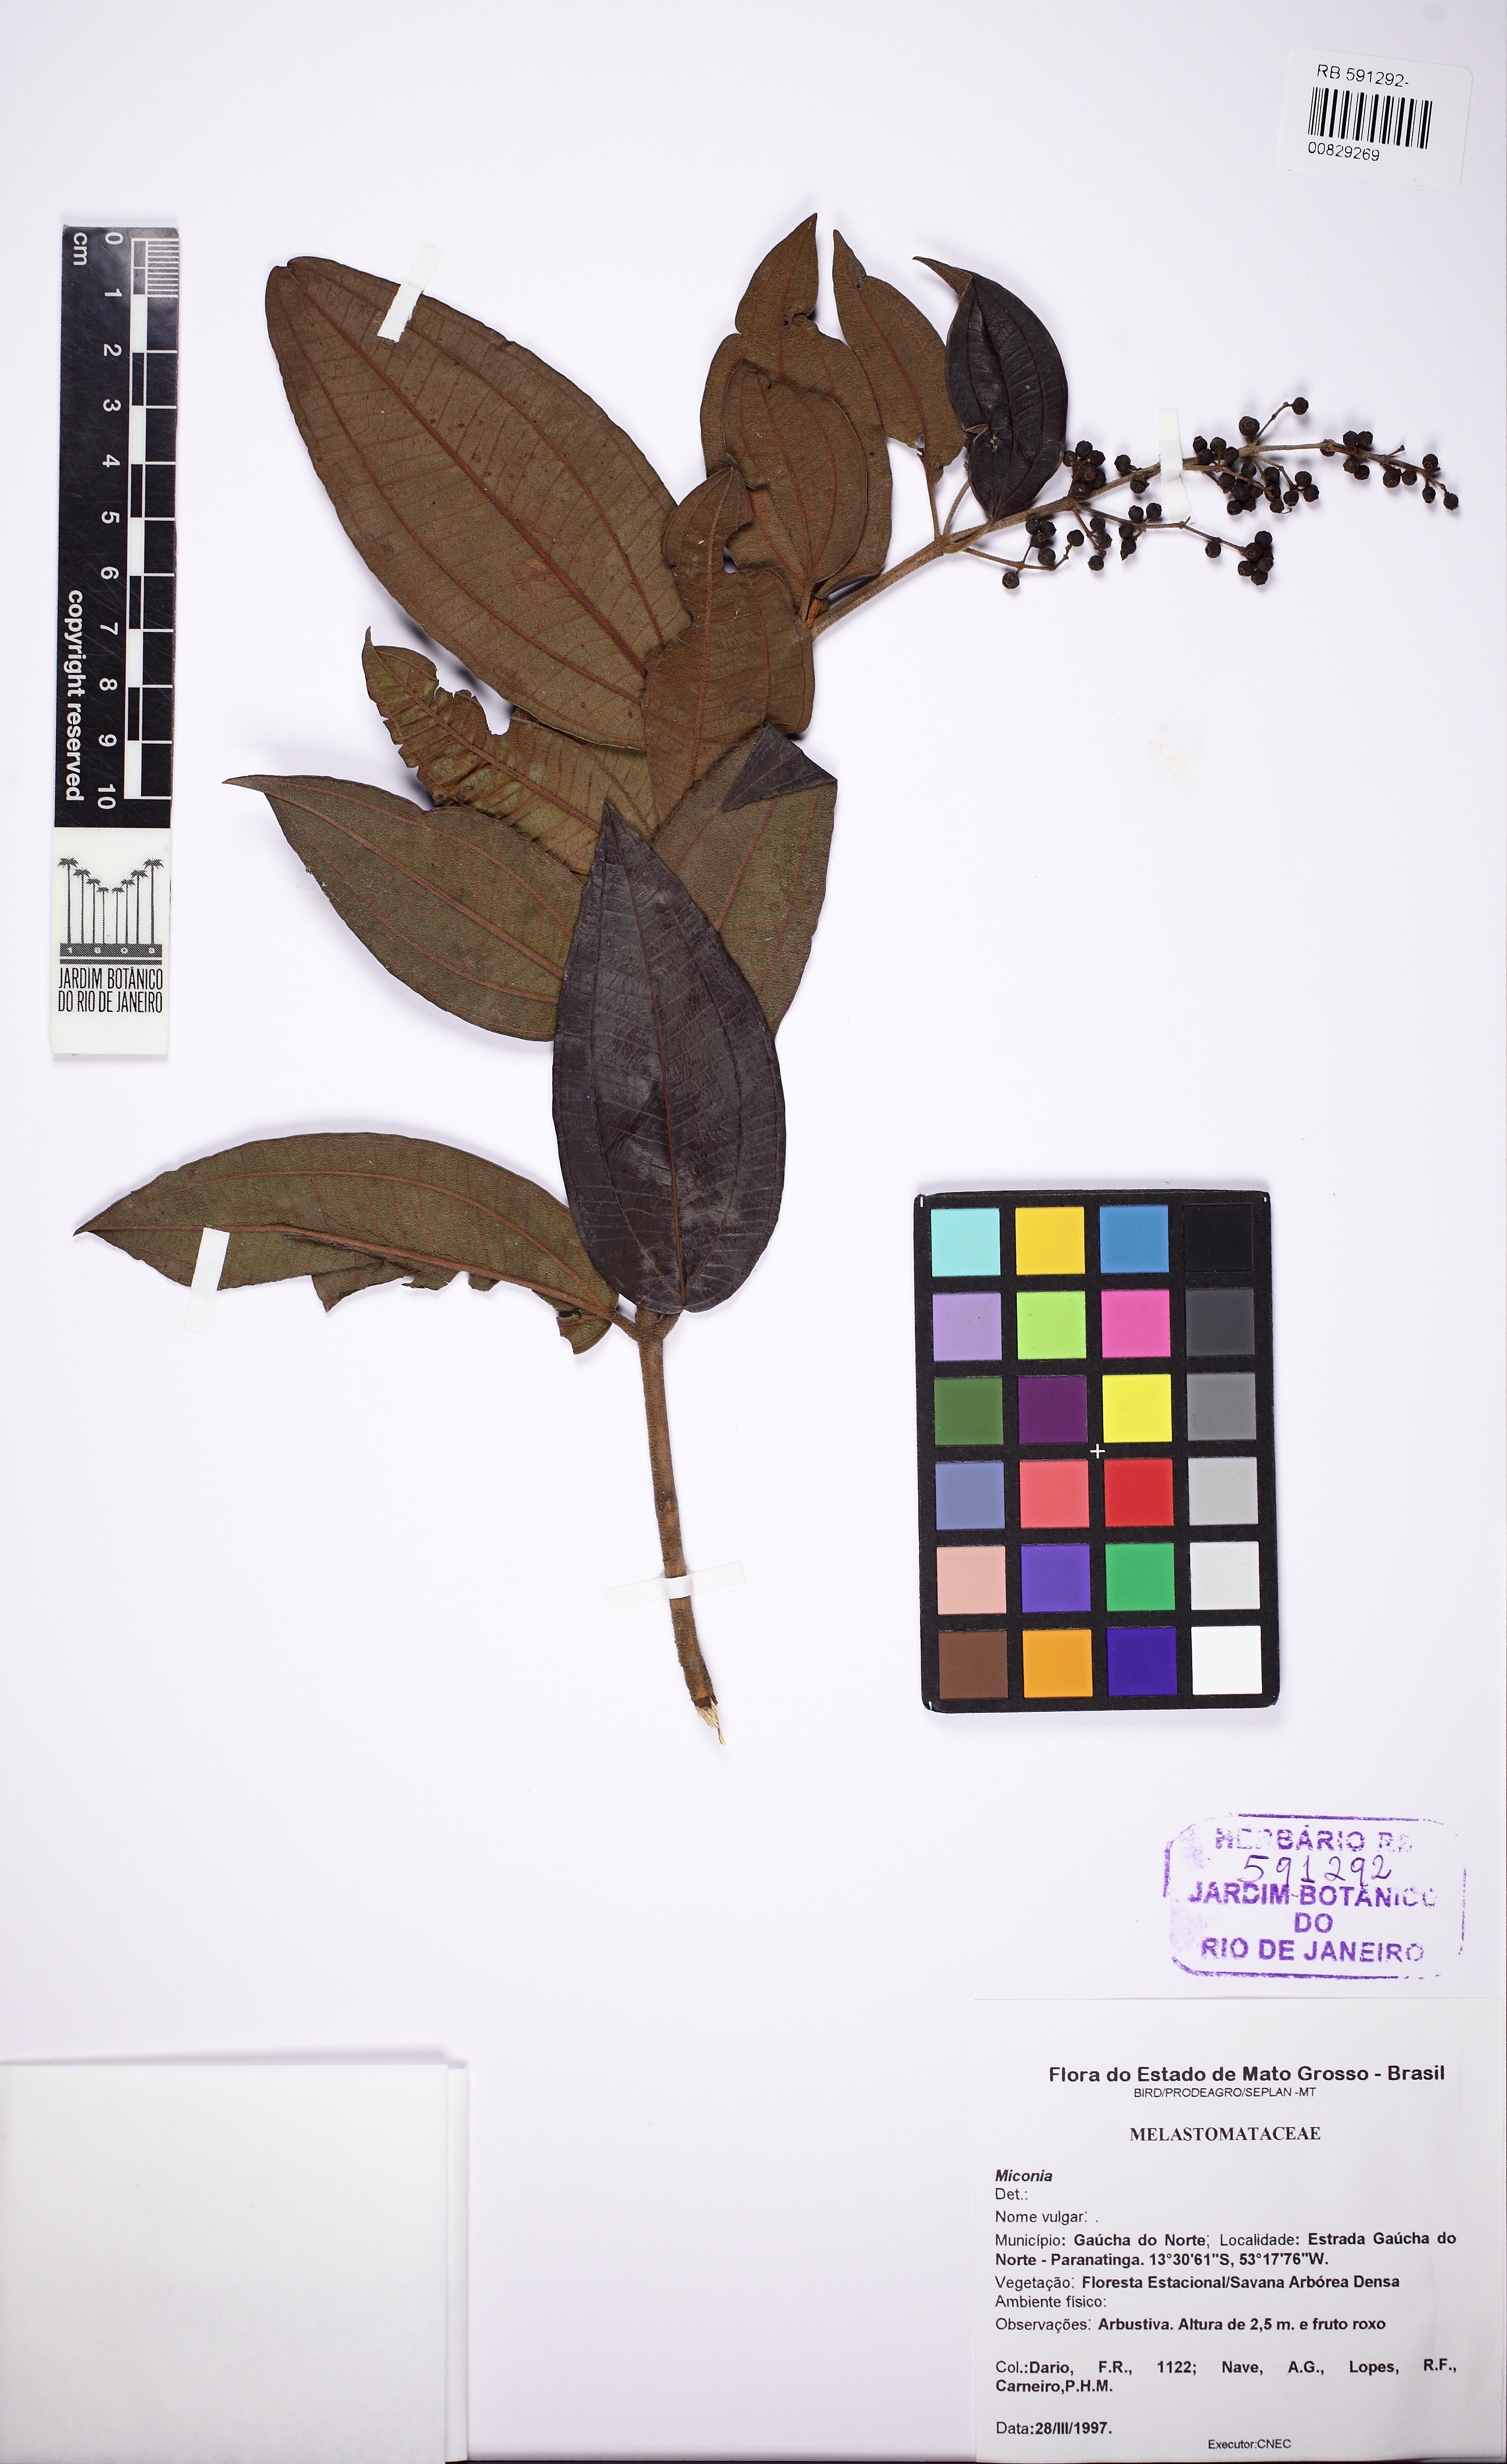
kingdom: Plantae
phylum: Tracheophyta
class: Magnoliopsida
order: Myrtales
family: Melastomataceae
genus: Miconia
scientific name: Miconia
